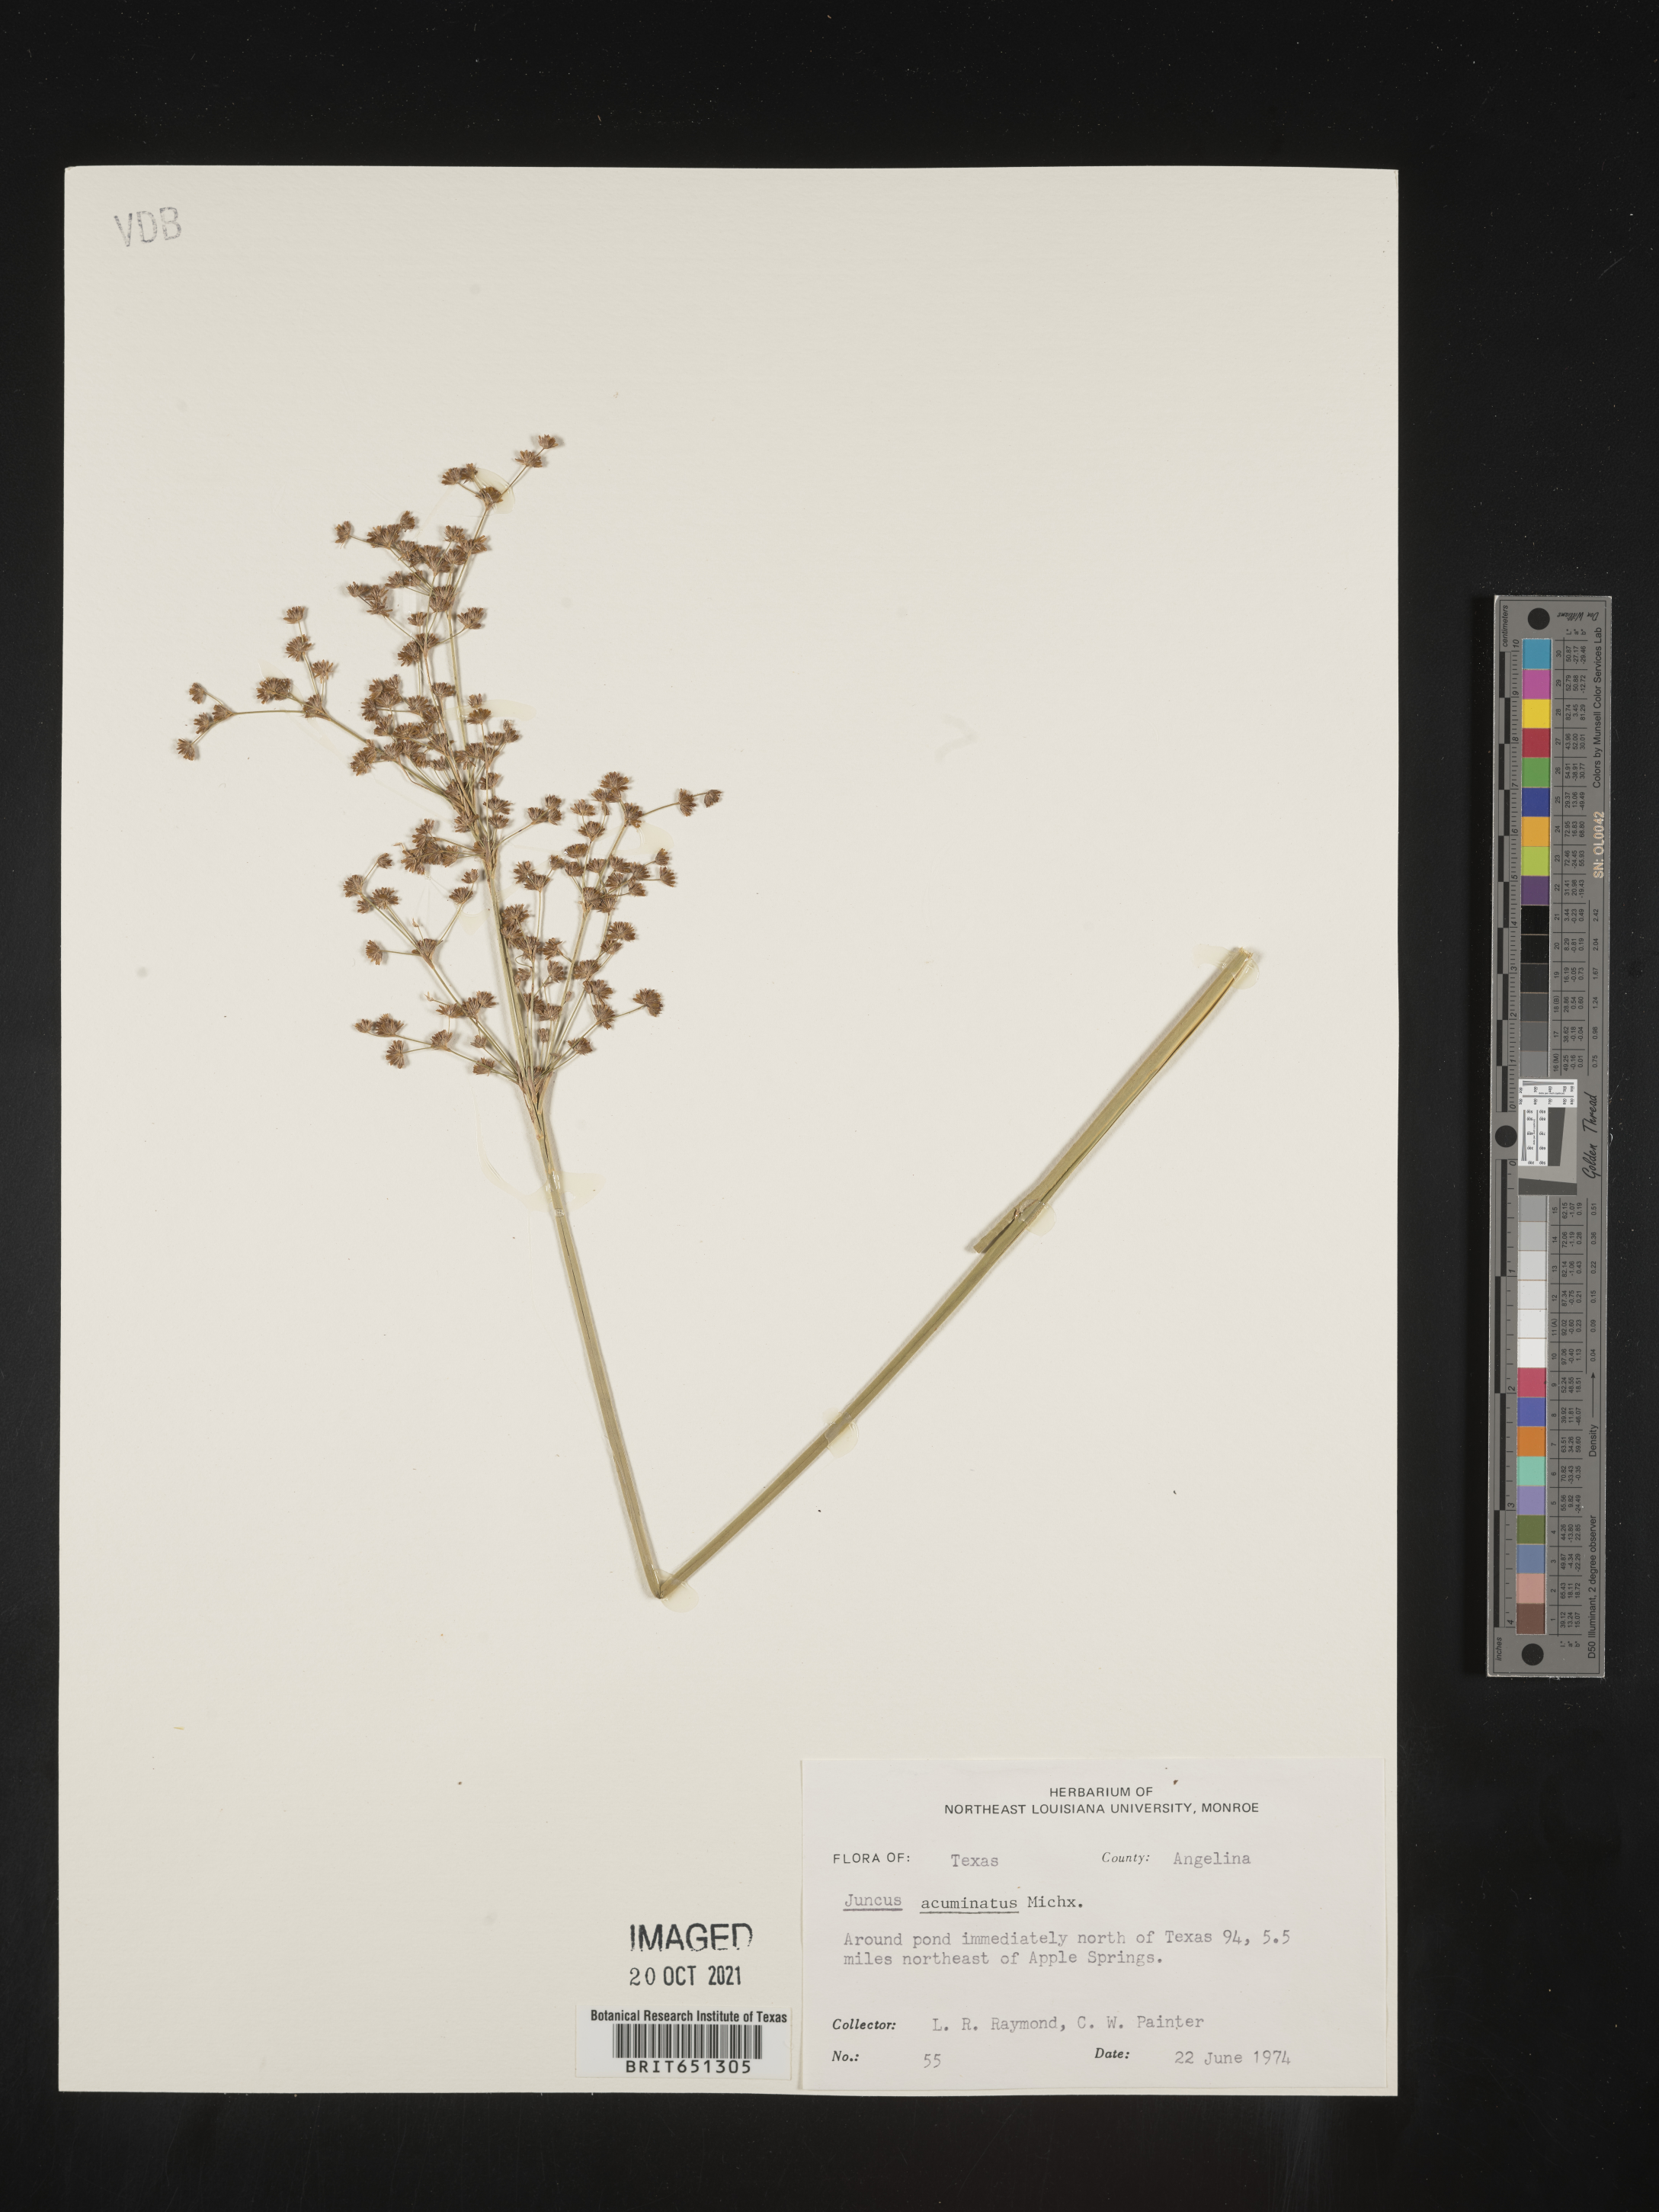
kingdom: Plantae
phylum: Tracheophyta
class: Liliopsida
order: Poales
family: Juncaceae
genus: Juncus
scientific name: Juncus acuminatus
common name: Knotty-leaved rush
